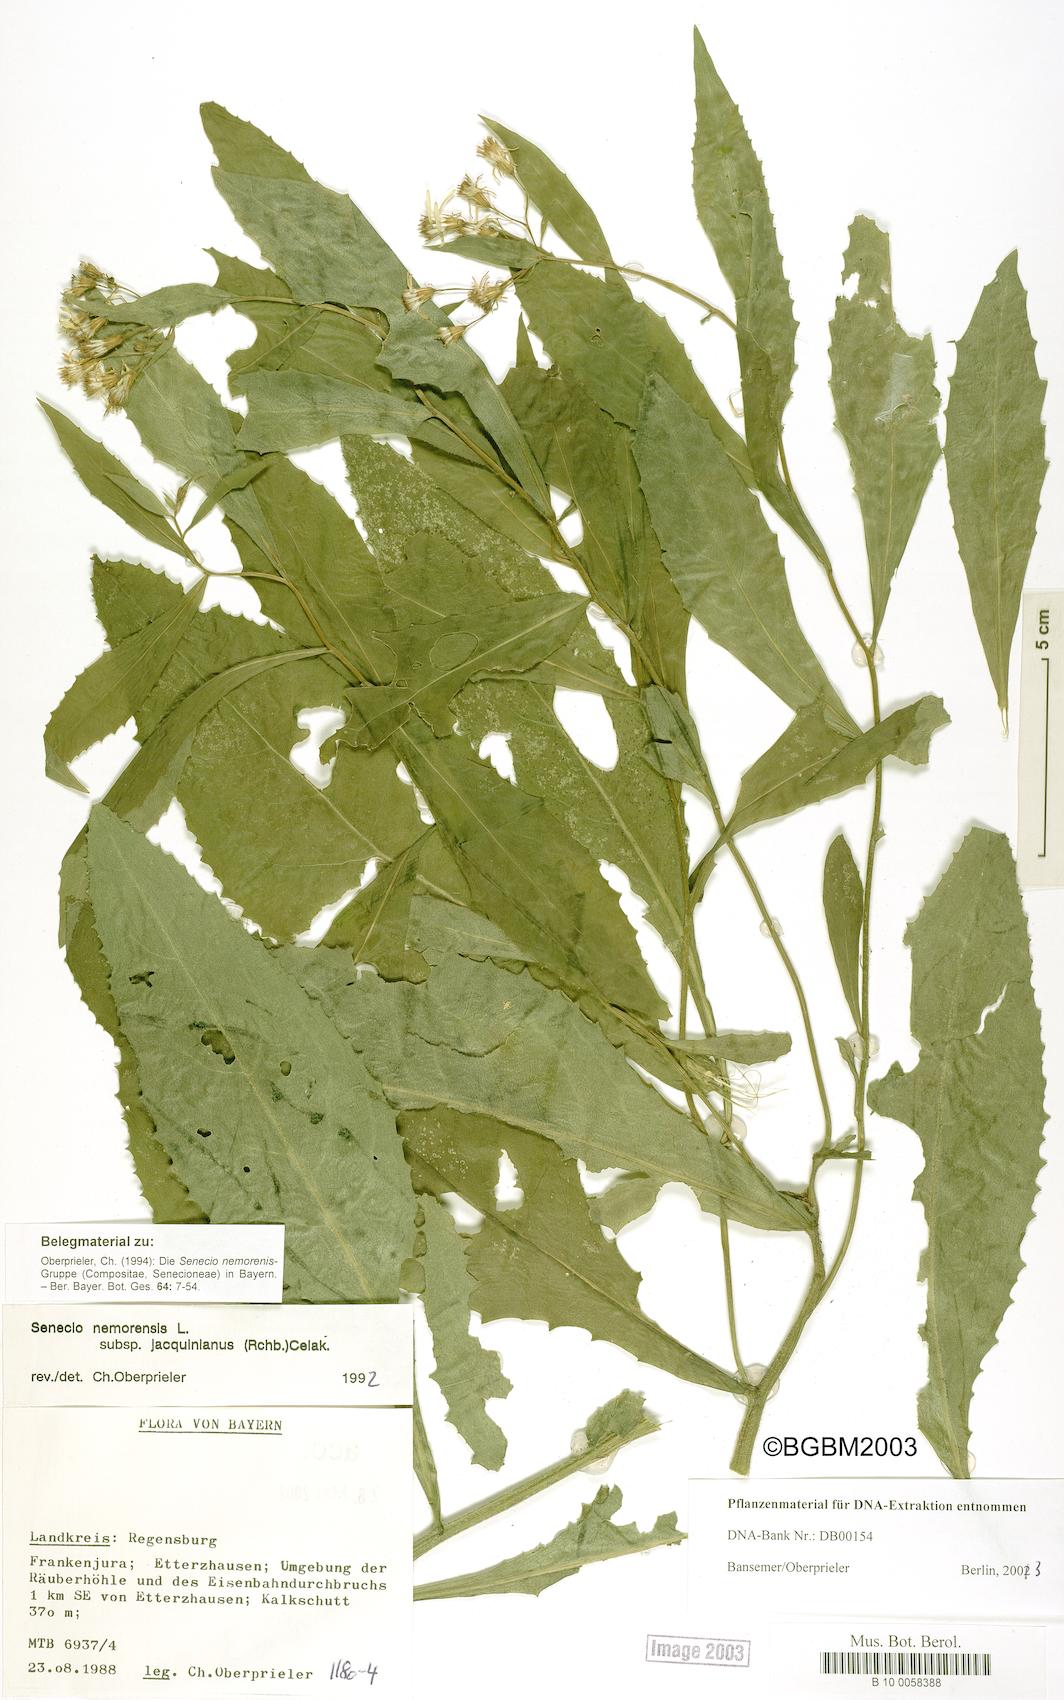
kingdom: Plantae
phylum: Tracheophyta
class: Magnoliopsida
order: Asterales
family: Asteraceae
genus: Senecio
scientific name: Senecio germanicus
